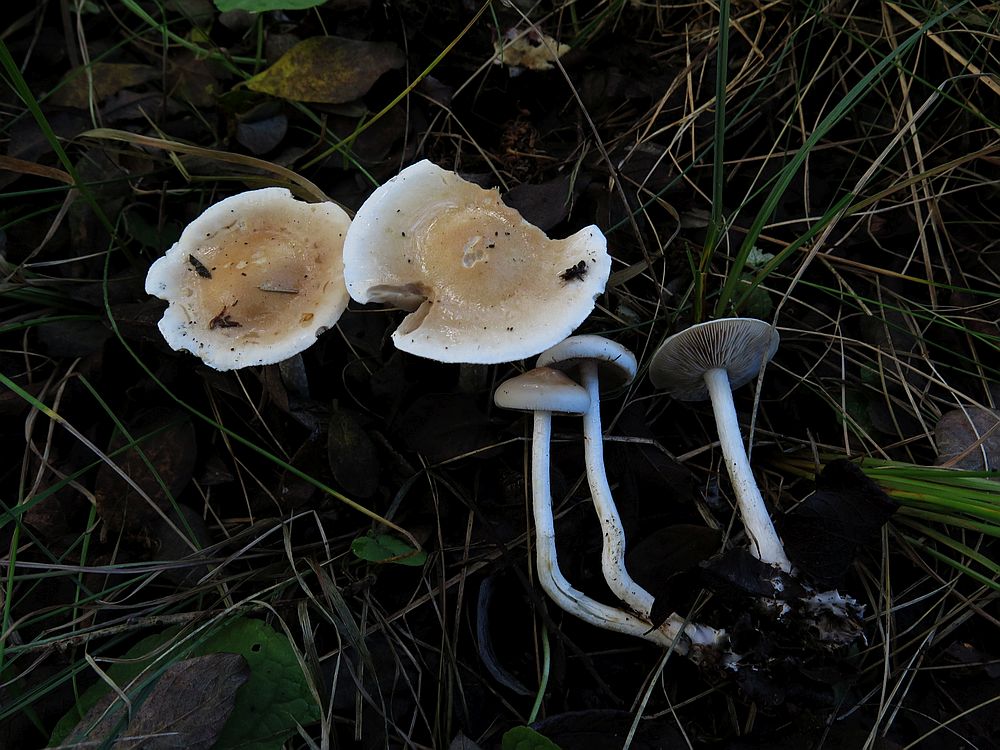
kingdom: Fungi
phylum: Basidiomycota
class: Agaricomycetes
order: Agaricales
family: Hymenogastraceae
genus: Hebeloma
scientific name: Hebeloma helodes
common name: rank tåreblad
